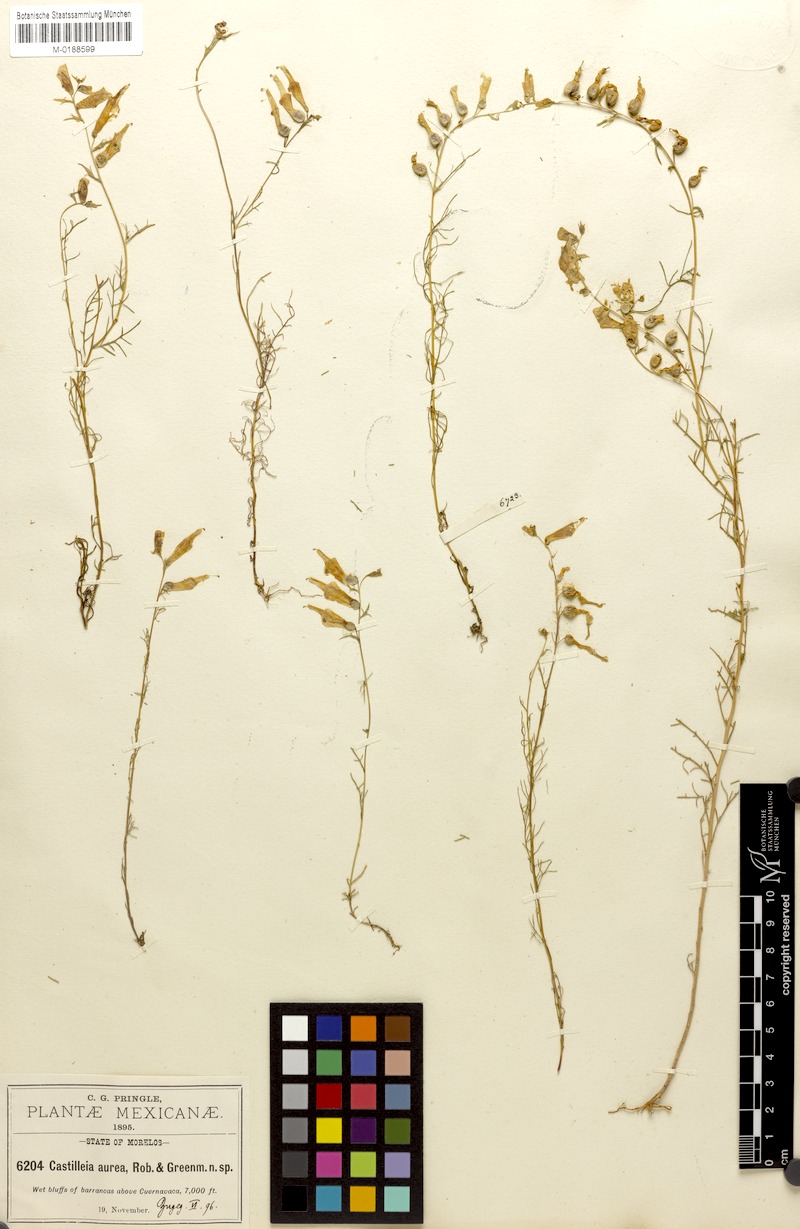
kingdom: Plantae
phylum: Tracheophyta
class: Magnoliopsida
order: Lamiales
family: Orobanchaceae
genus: Castilleja
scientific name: Castilleja aurea
